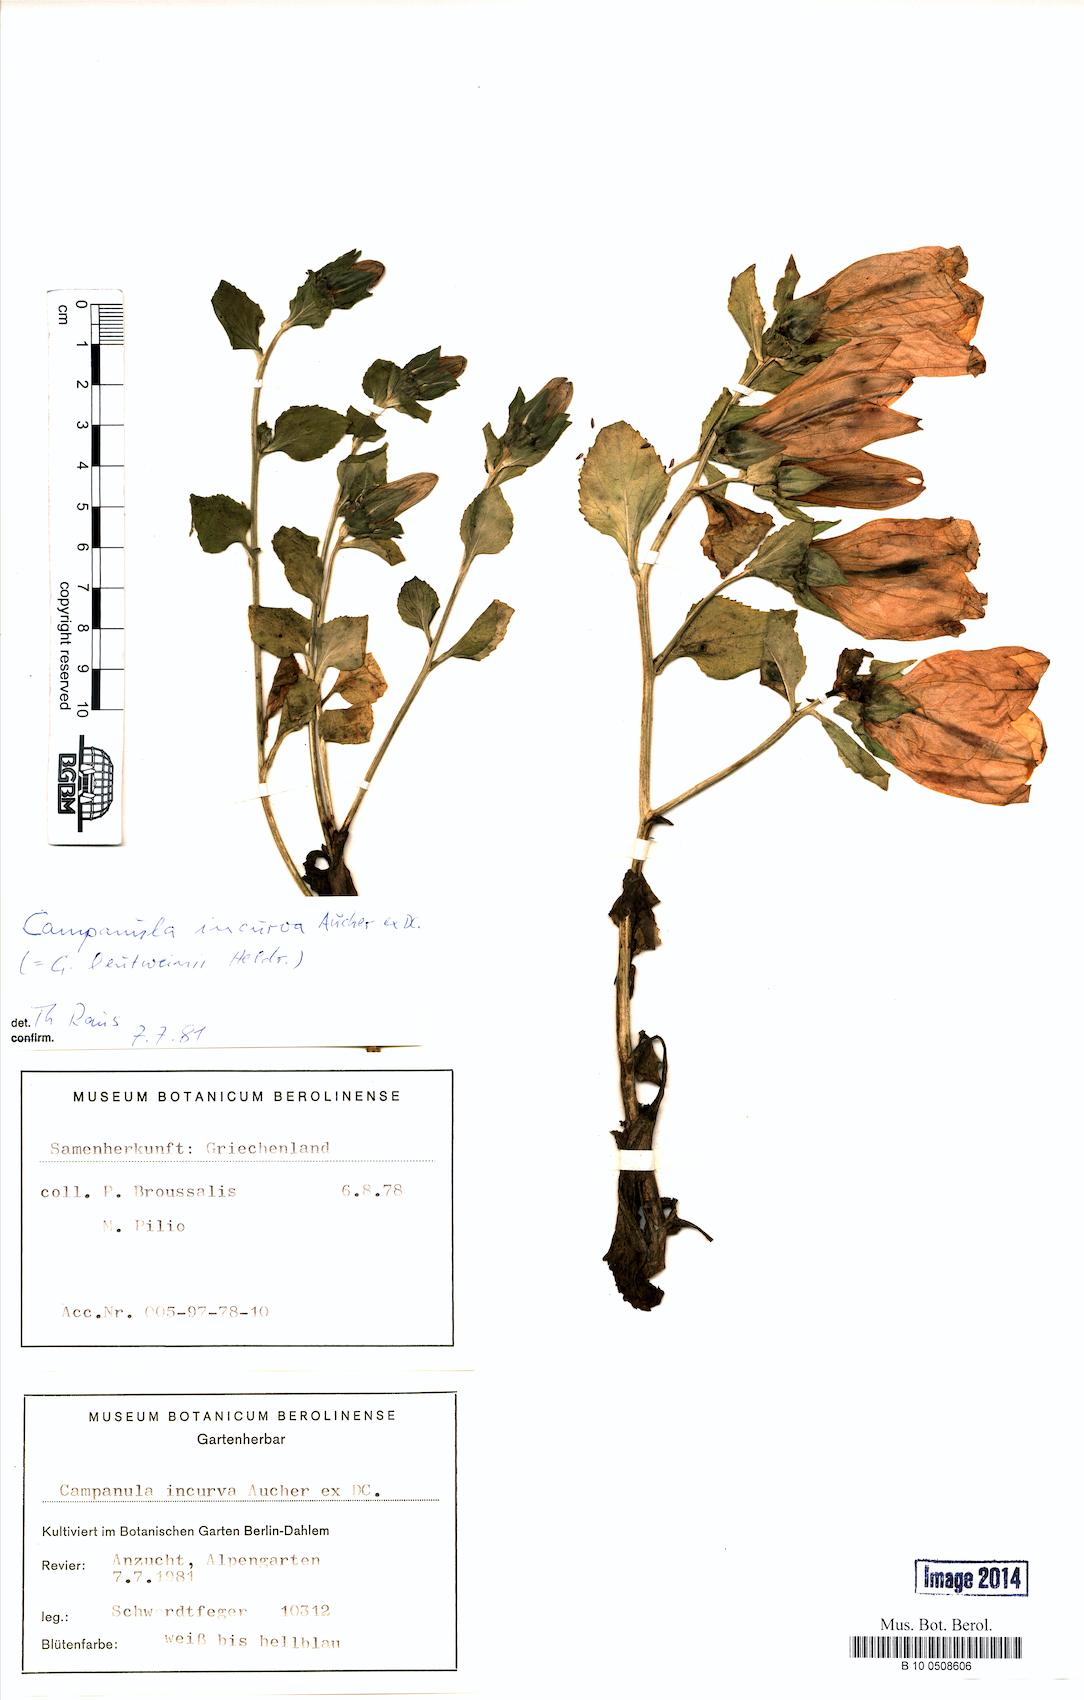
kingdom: Plantae
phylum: Tracheophyta
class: Magnoliopsida
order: Asterales
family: Campanulaceae
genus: Campanula
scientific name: Campanula incurva
